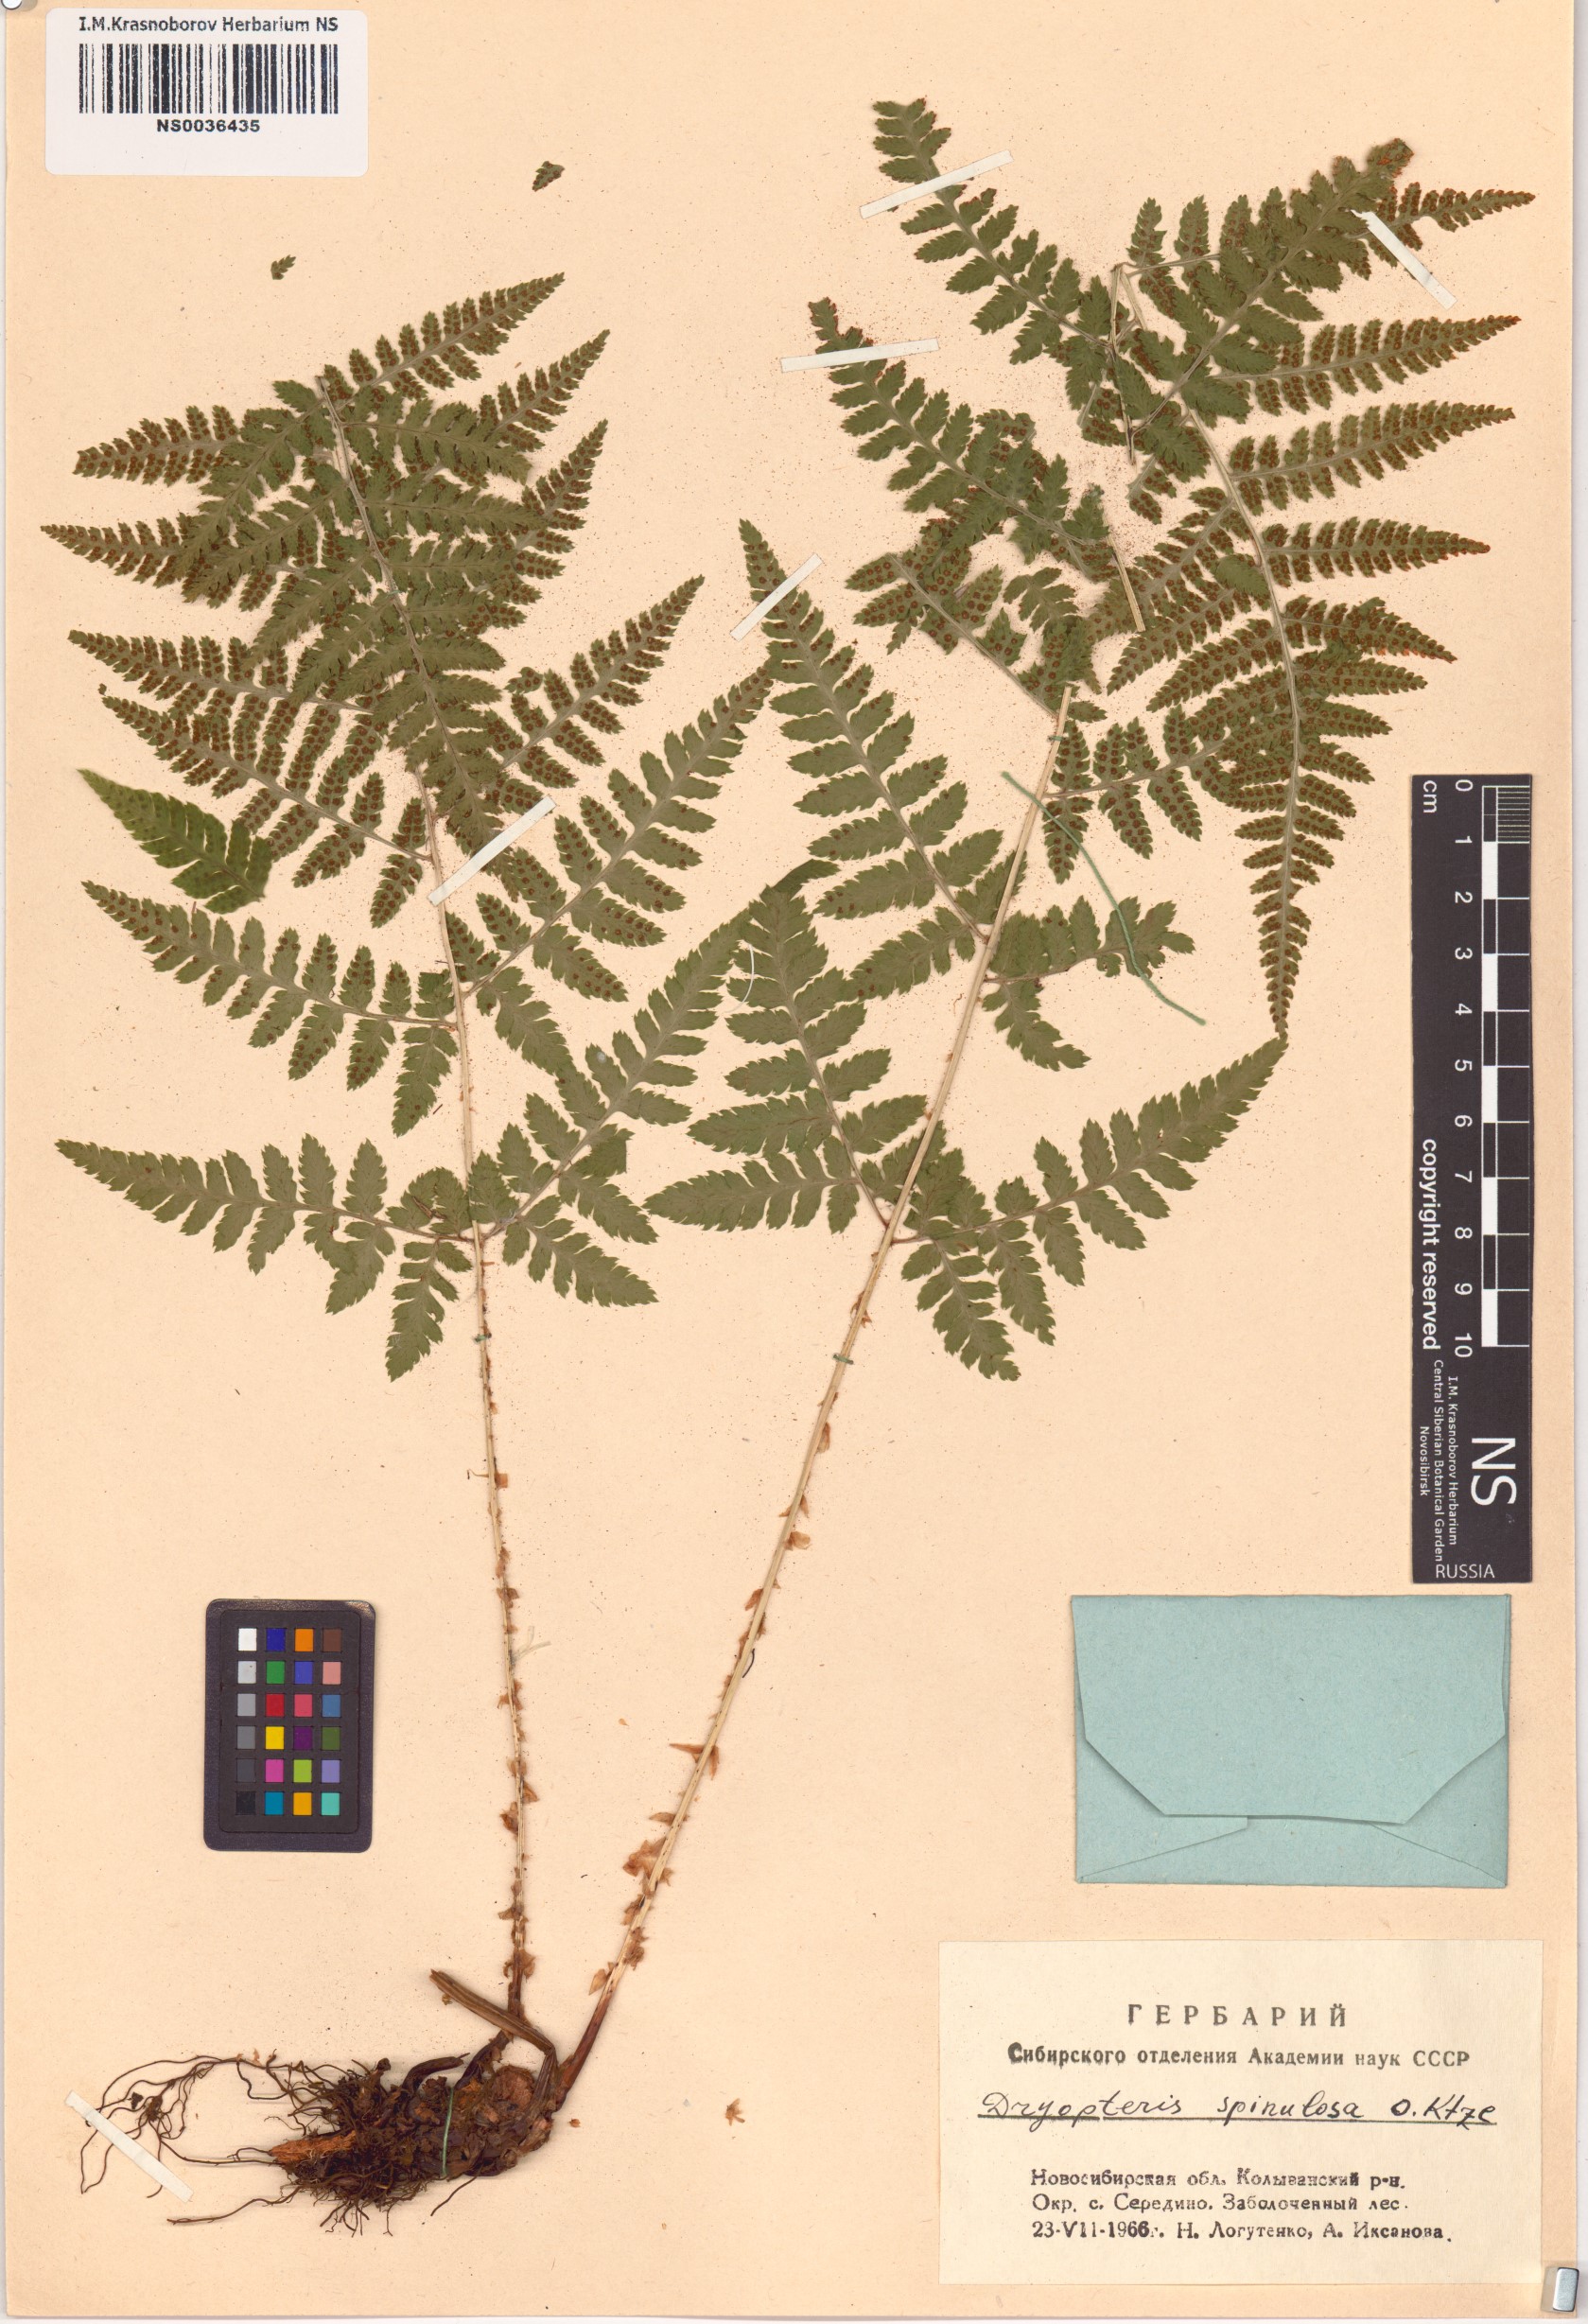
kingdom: Plantae
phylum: Tracheophyta
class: Polypodiopsida
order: Polypodiales
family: Dryopteridaceae
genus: Dryopteris
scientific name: Dryopteris carthusiana
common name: Narrow buckler-fern
